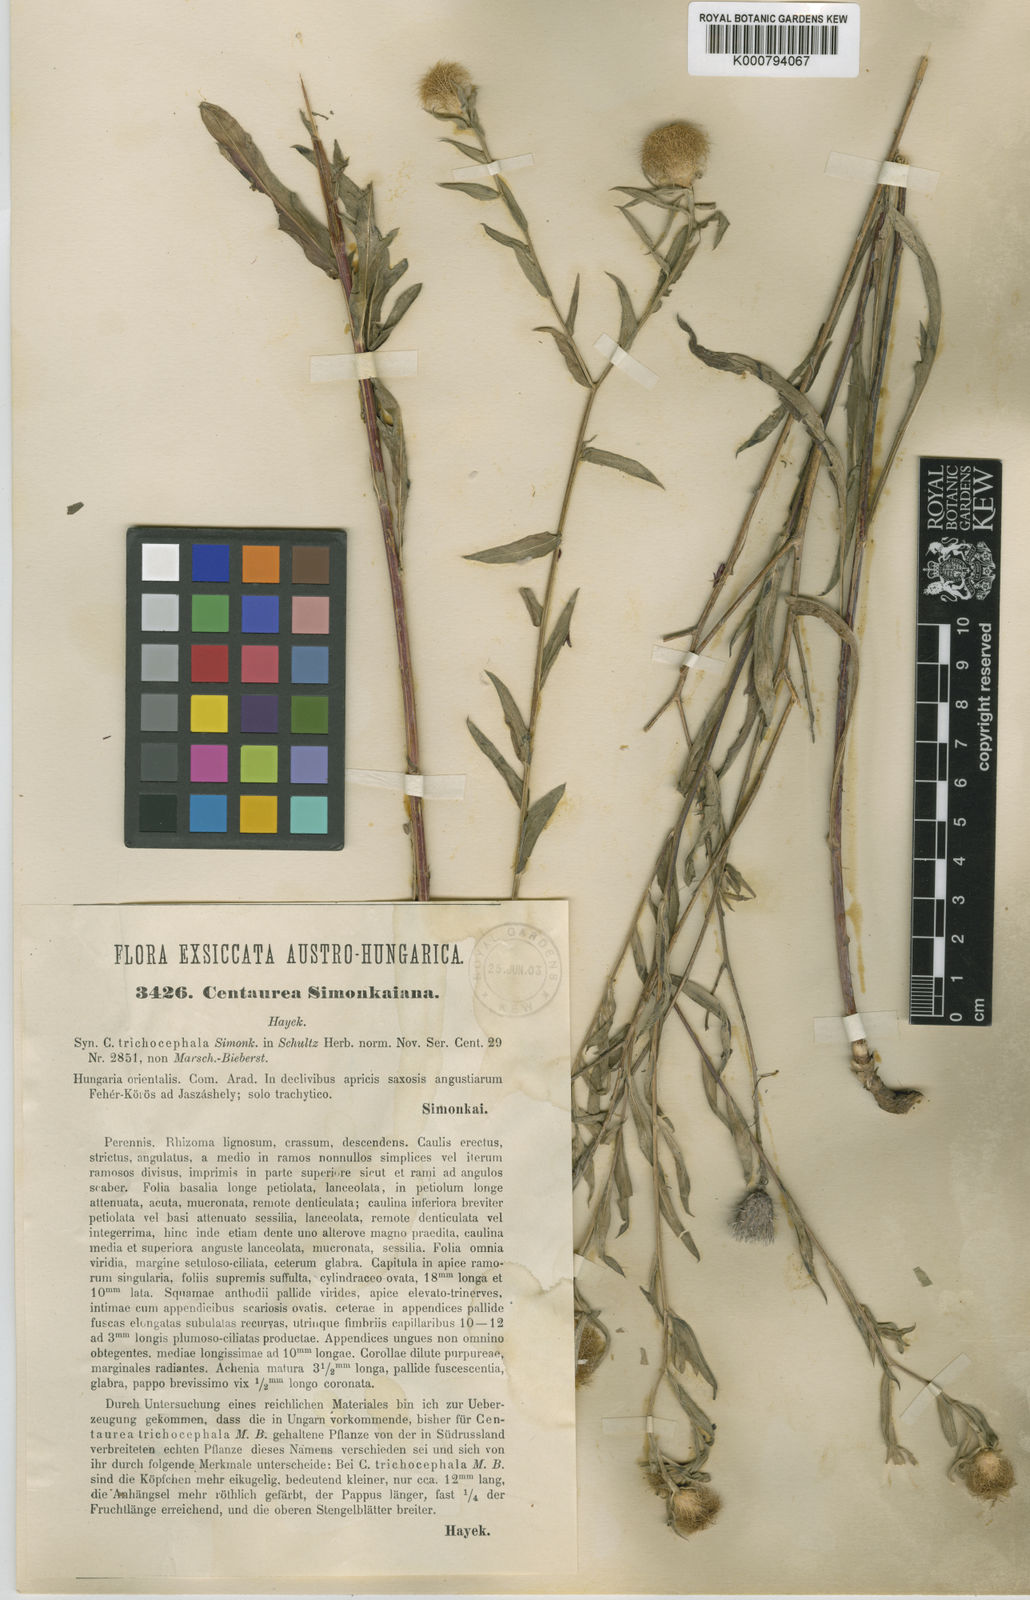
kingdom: Plantae
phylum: Tracheophyta
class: Magnoliopsida
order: Asterales
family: Asteraceae
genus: Centaurea
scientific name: Centaurea trichocephala
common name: Feather-head knapweed
